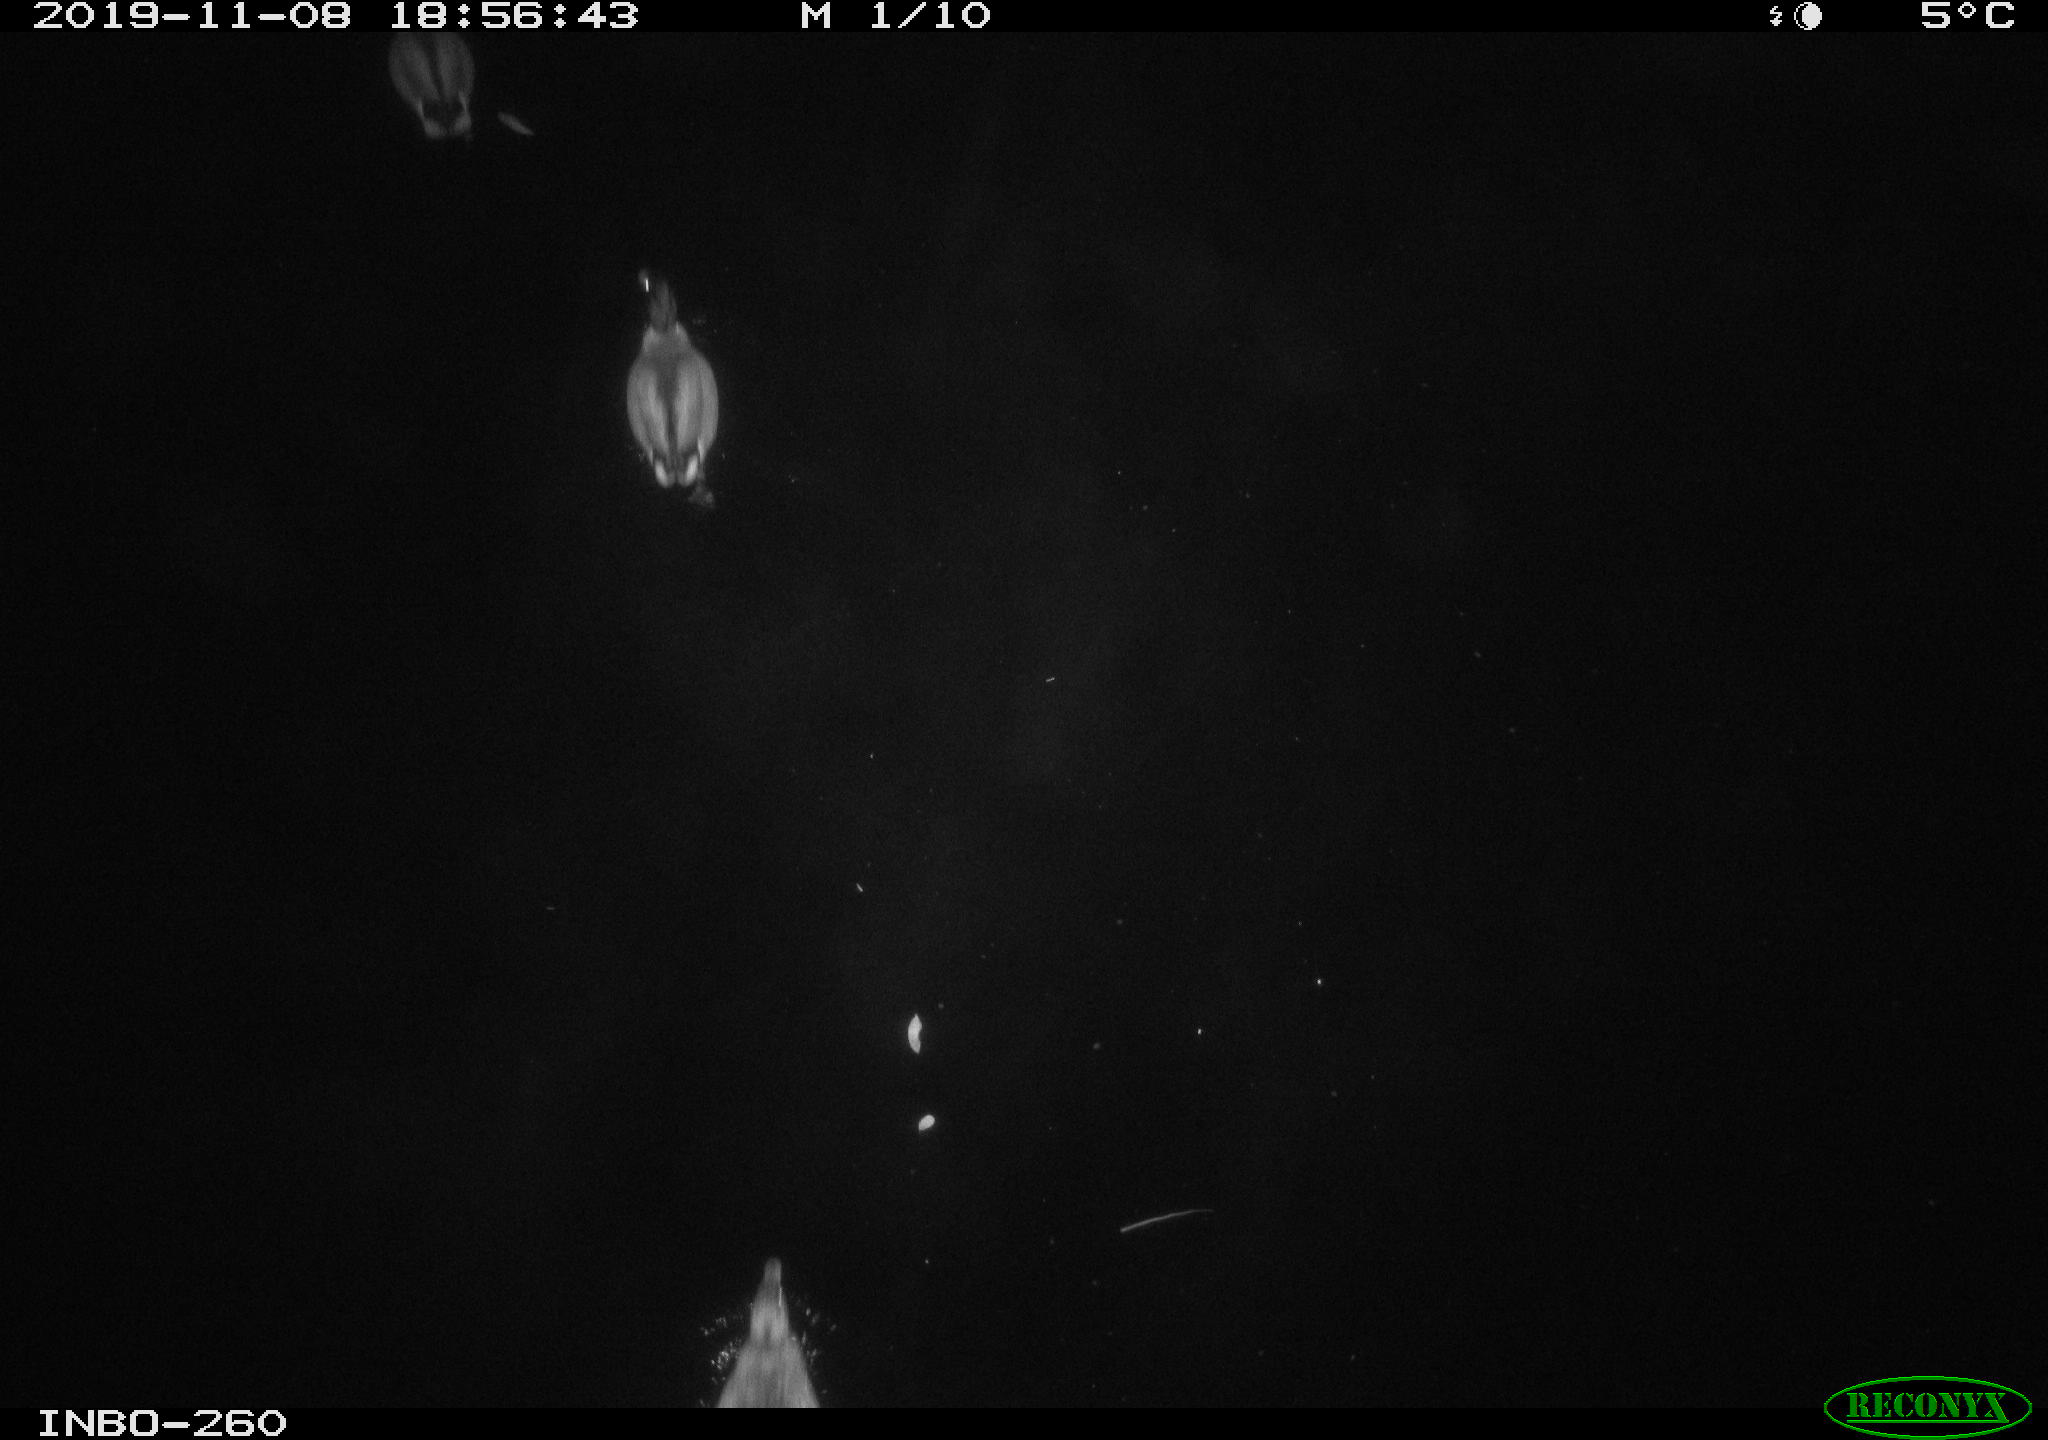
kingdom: Animalia
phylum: Chordata
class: Aves
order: Anseriformes
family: Anatidae
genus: Anas
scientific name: Anas platyrhynchos
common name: Mallard
